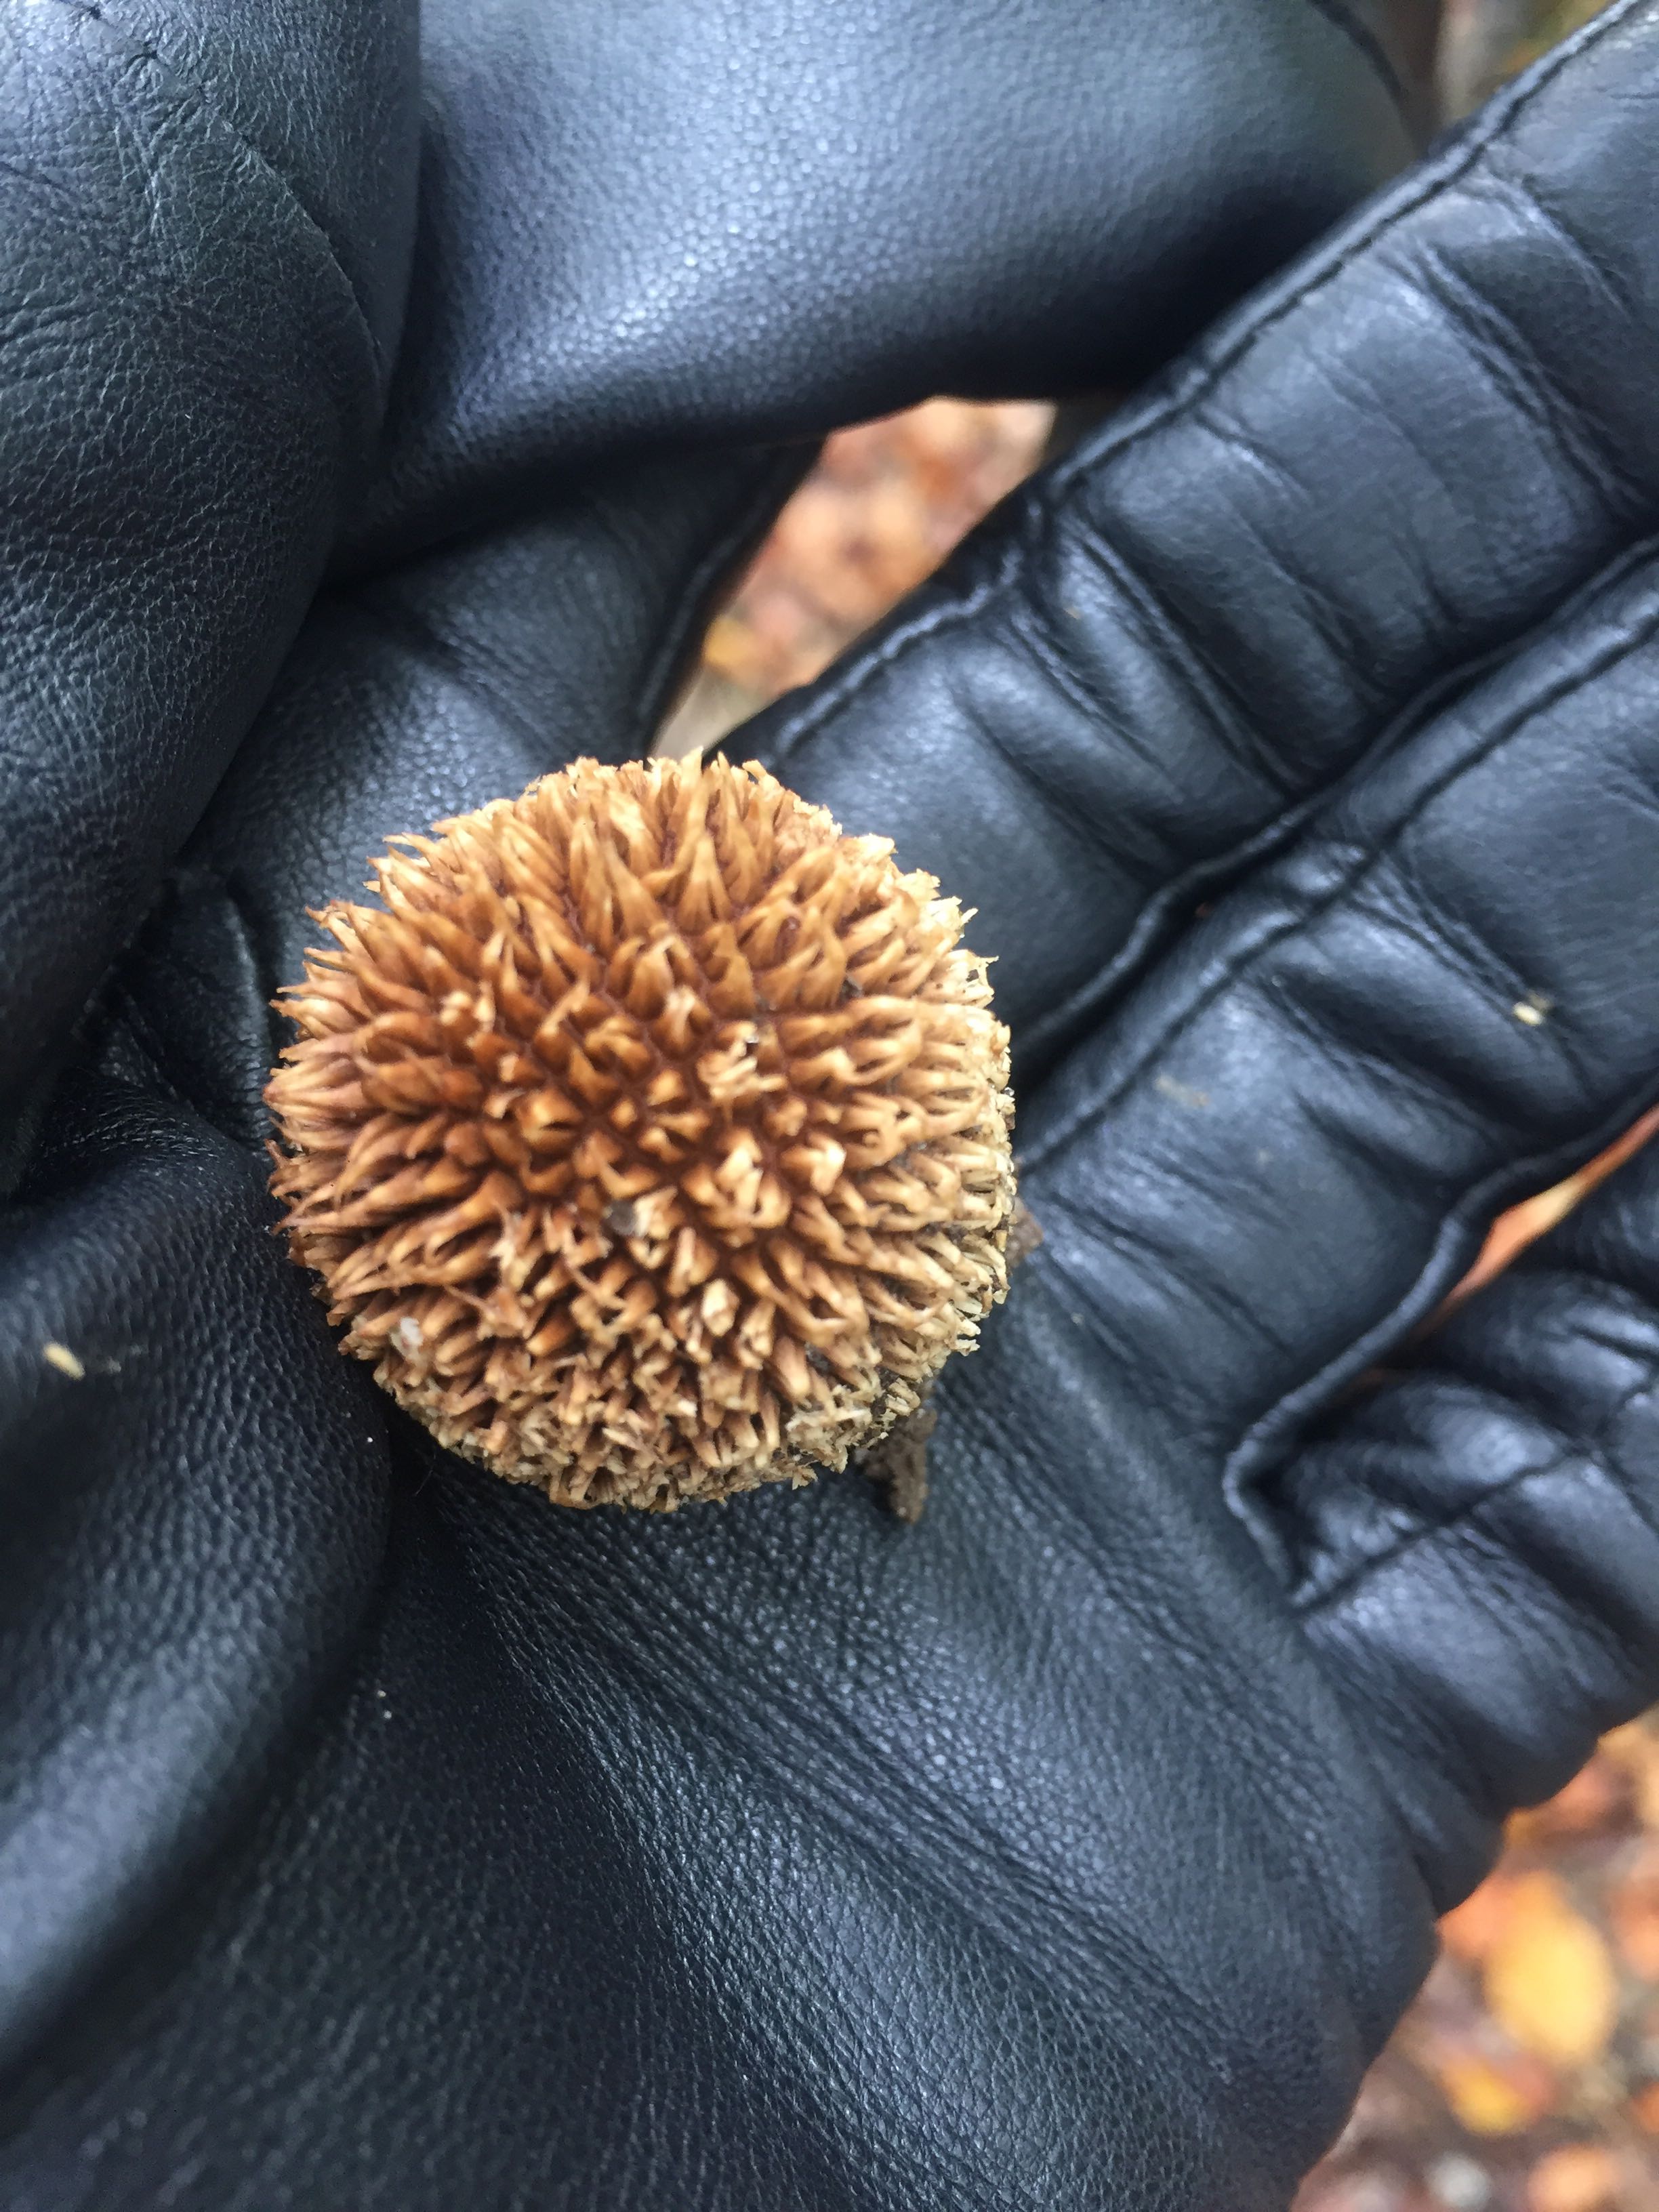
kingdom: Fungi
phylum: Basidiomycota
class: Agaricomycetes
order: Agaricales
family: Lycoperdaceae
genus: Lycoperdon
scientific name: Lycoperdon echinatum
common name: pindsvine-støvbold
